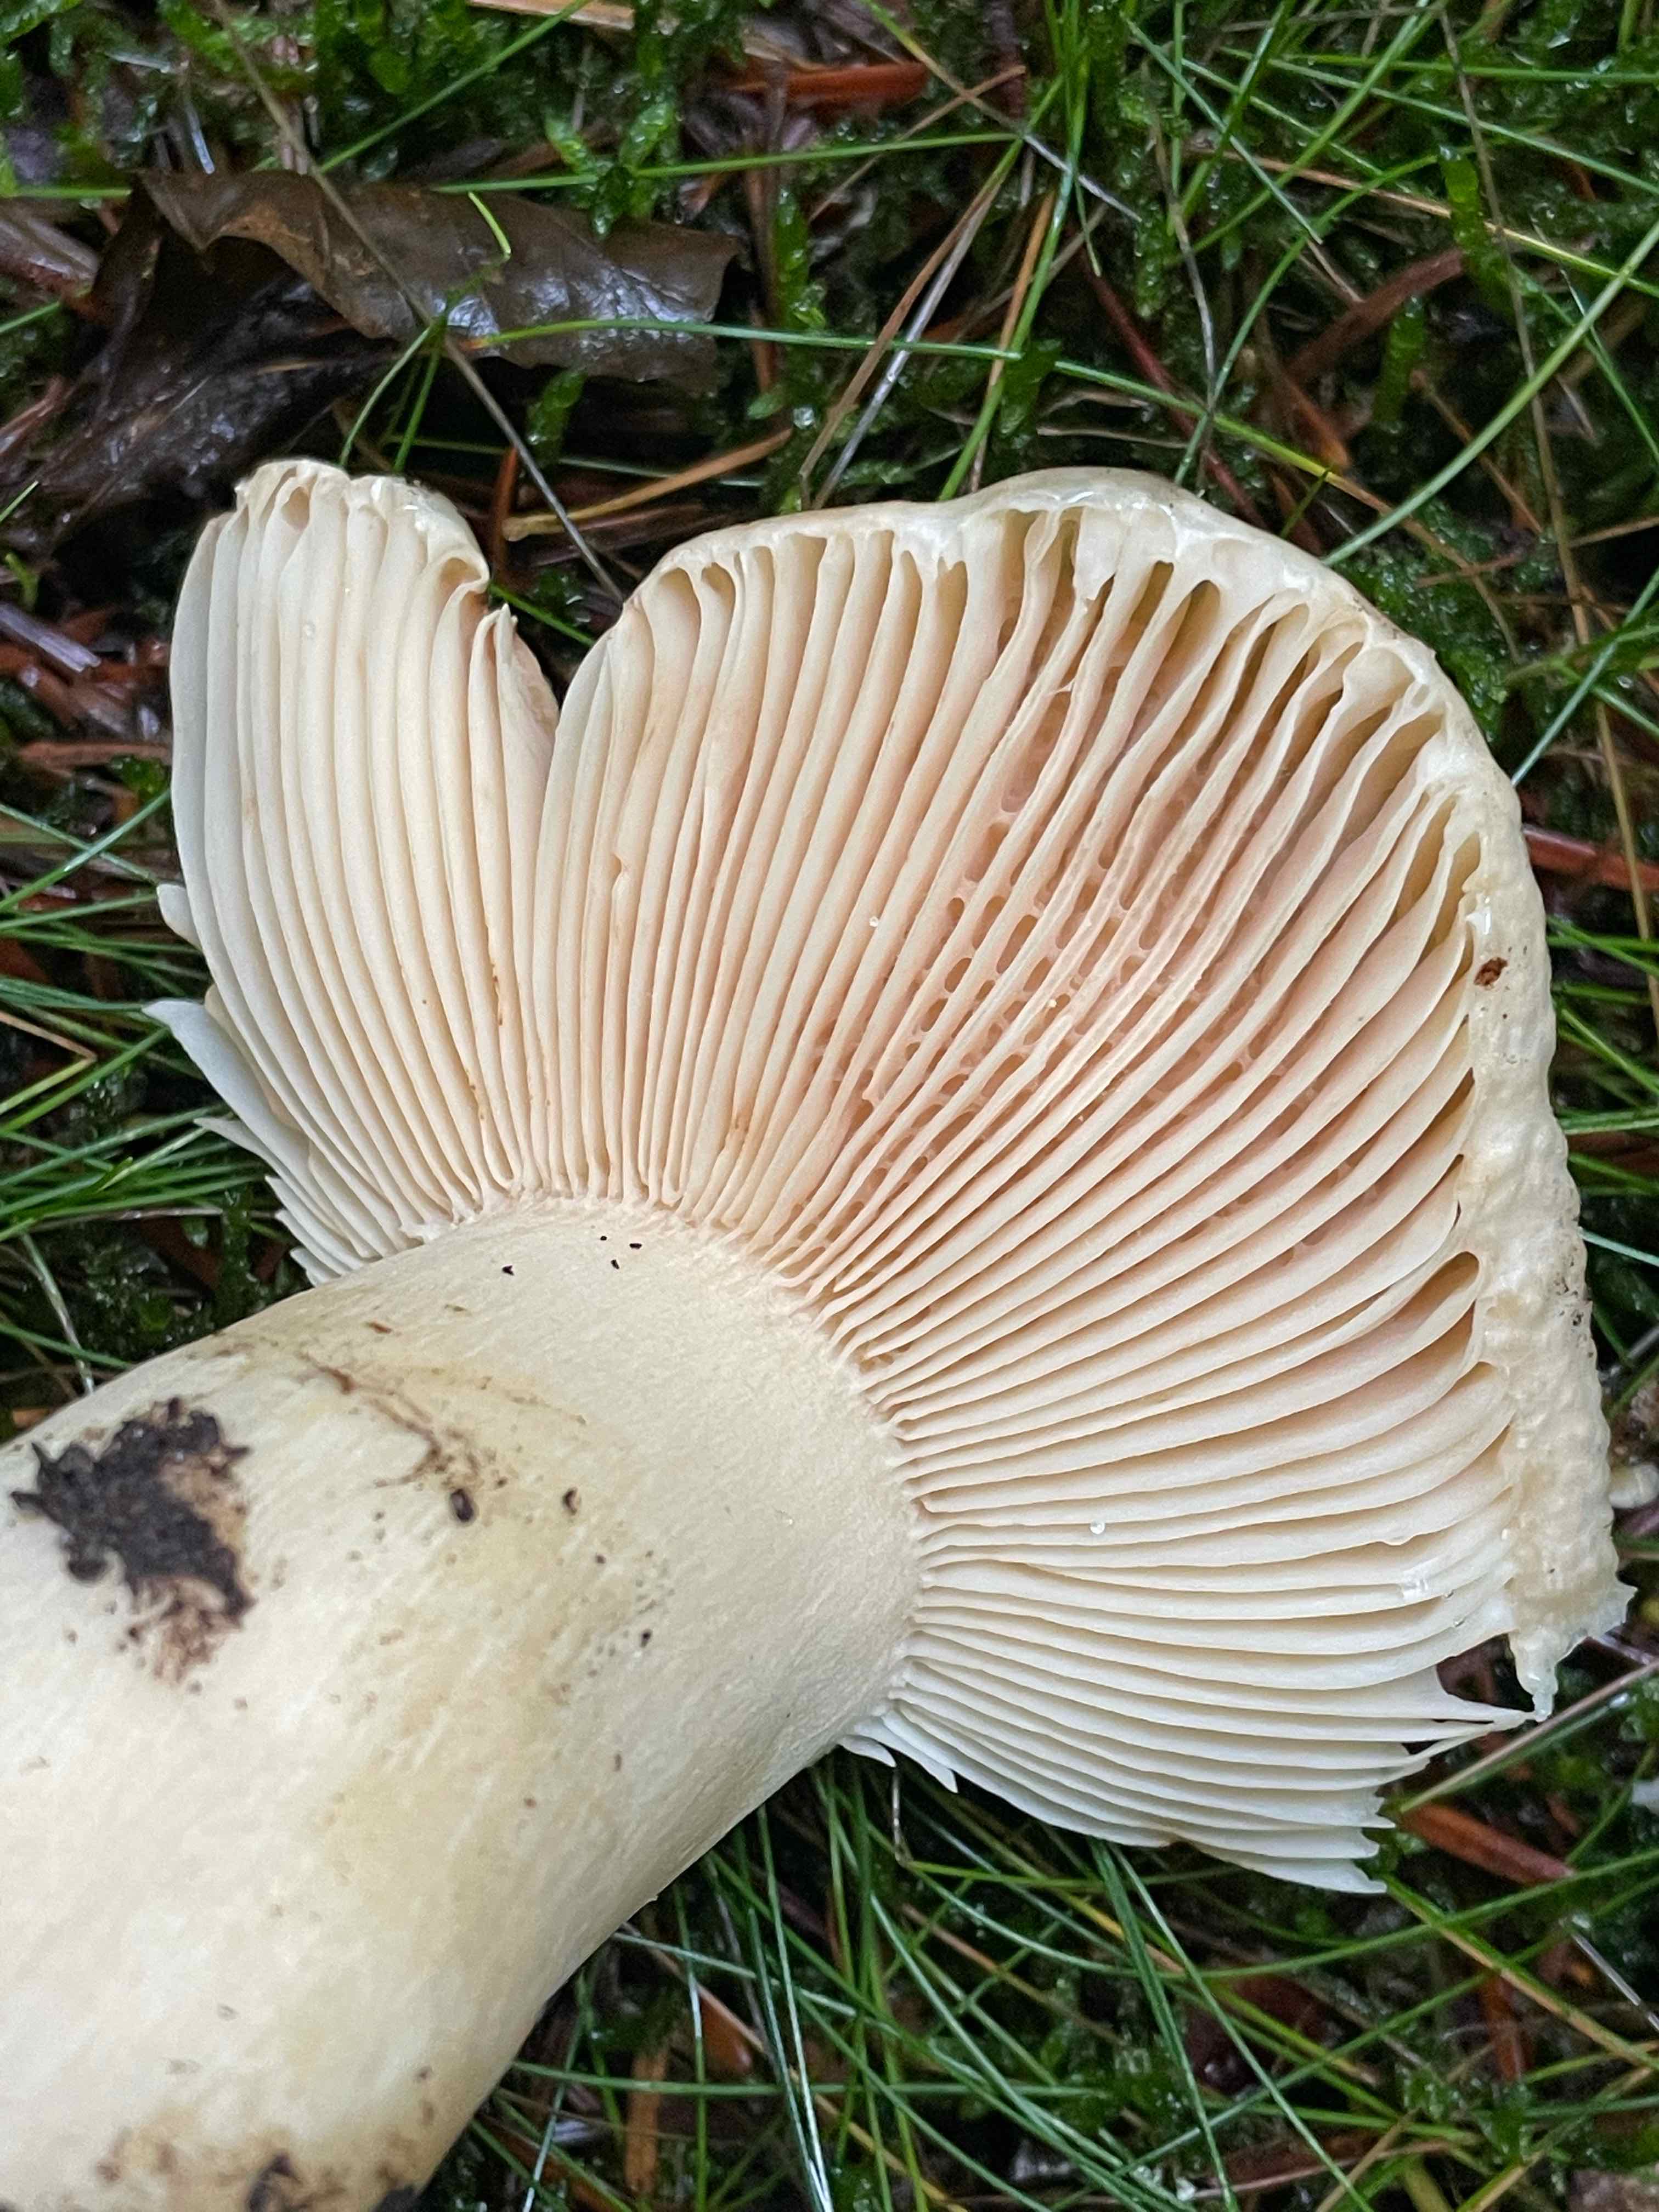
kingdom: Fungi
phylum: Basidiomycota
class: Agaricomycetes
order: Russulales
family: Russulaceae
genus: Russula
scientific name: Russula fellea
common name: galde-skørhat
